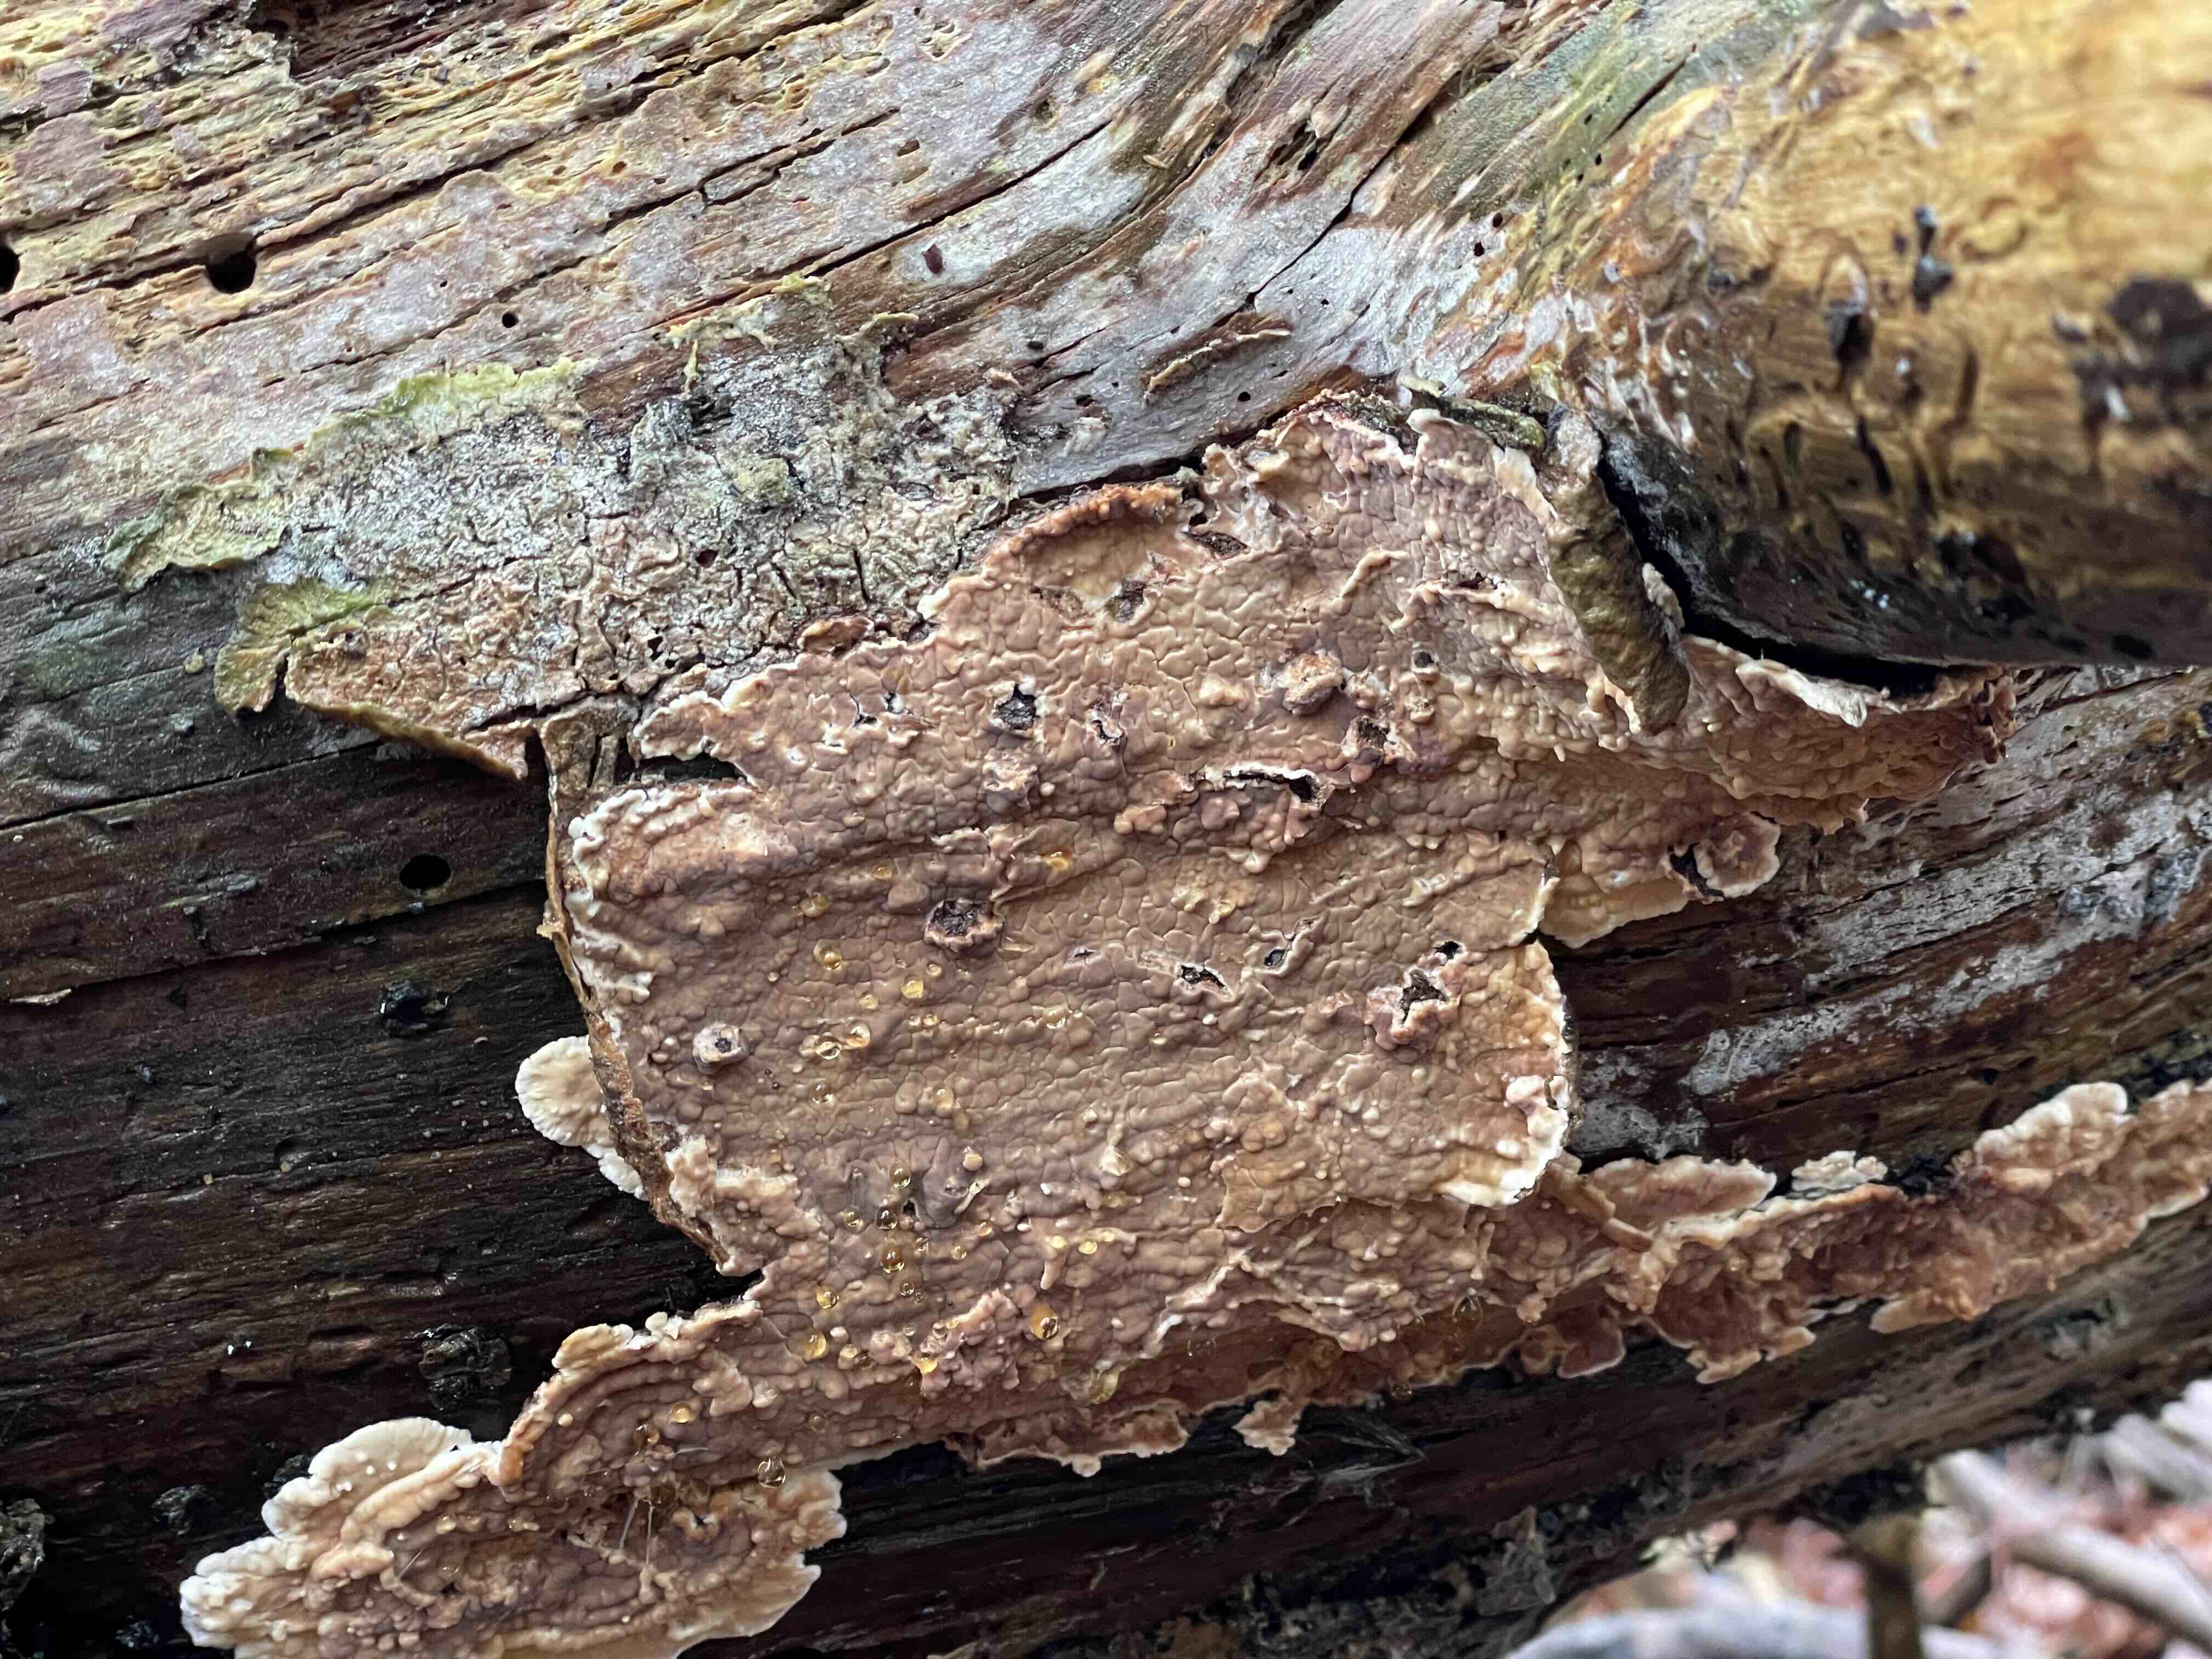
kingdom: Fungi
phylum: Basidiomycota
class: Agaricomycetes
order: Polyporales
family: Dacryobolaceae
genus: Dacryobolus
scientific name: Dacryobolus karstenii
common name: glat vulkanskorpe
